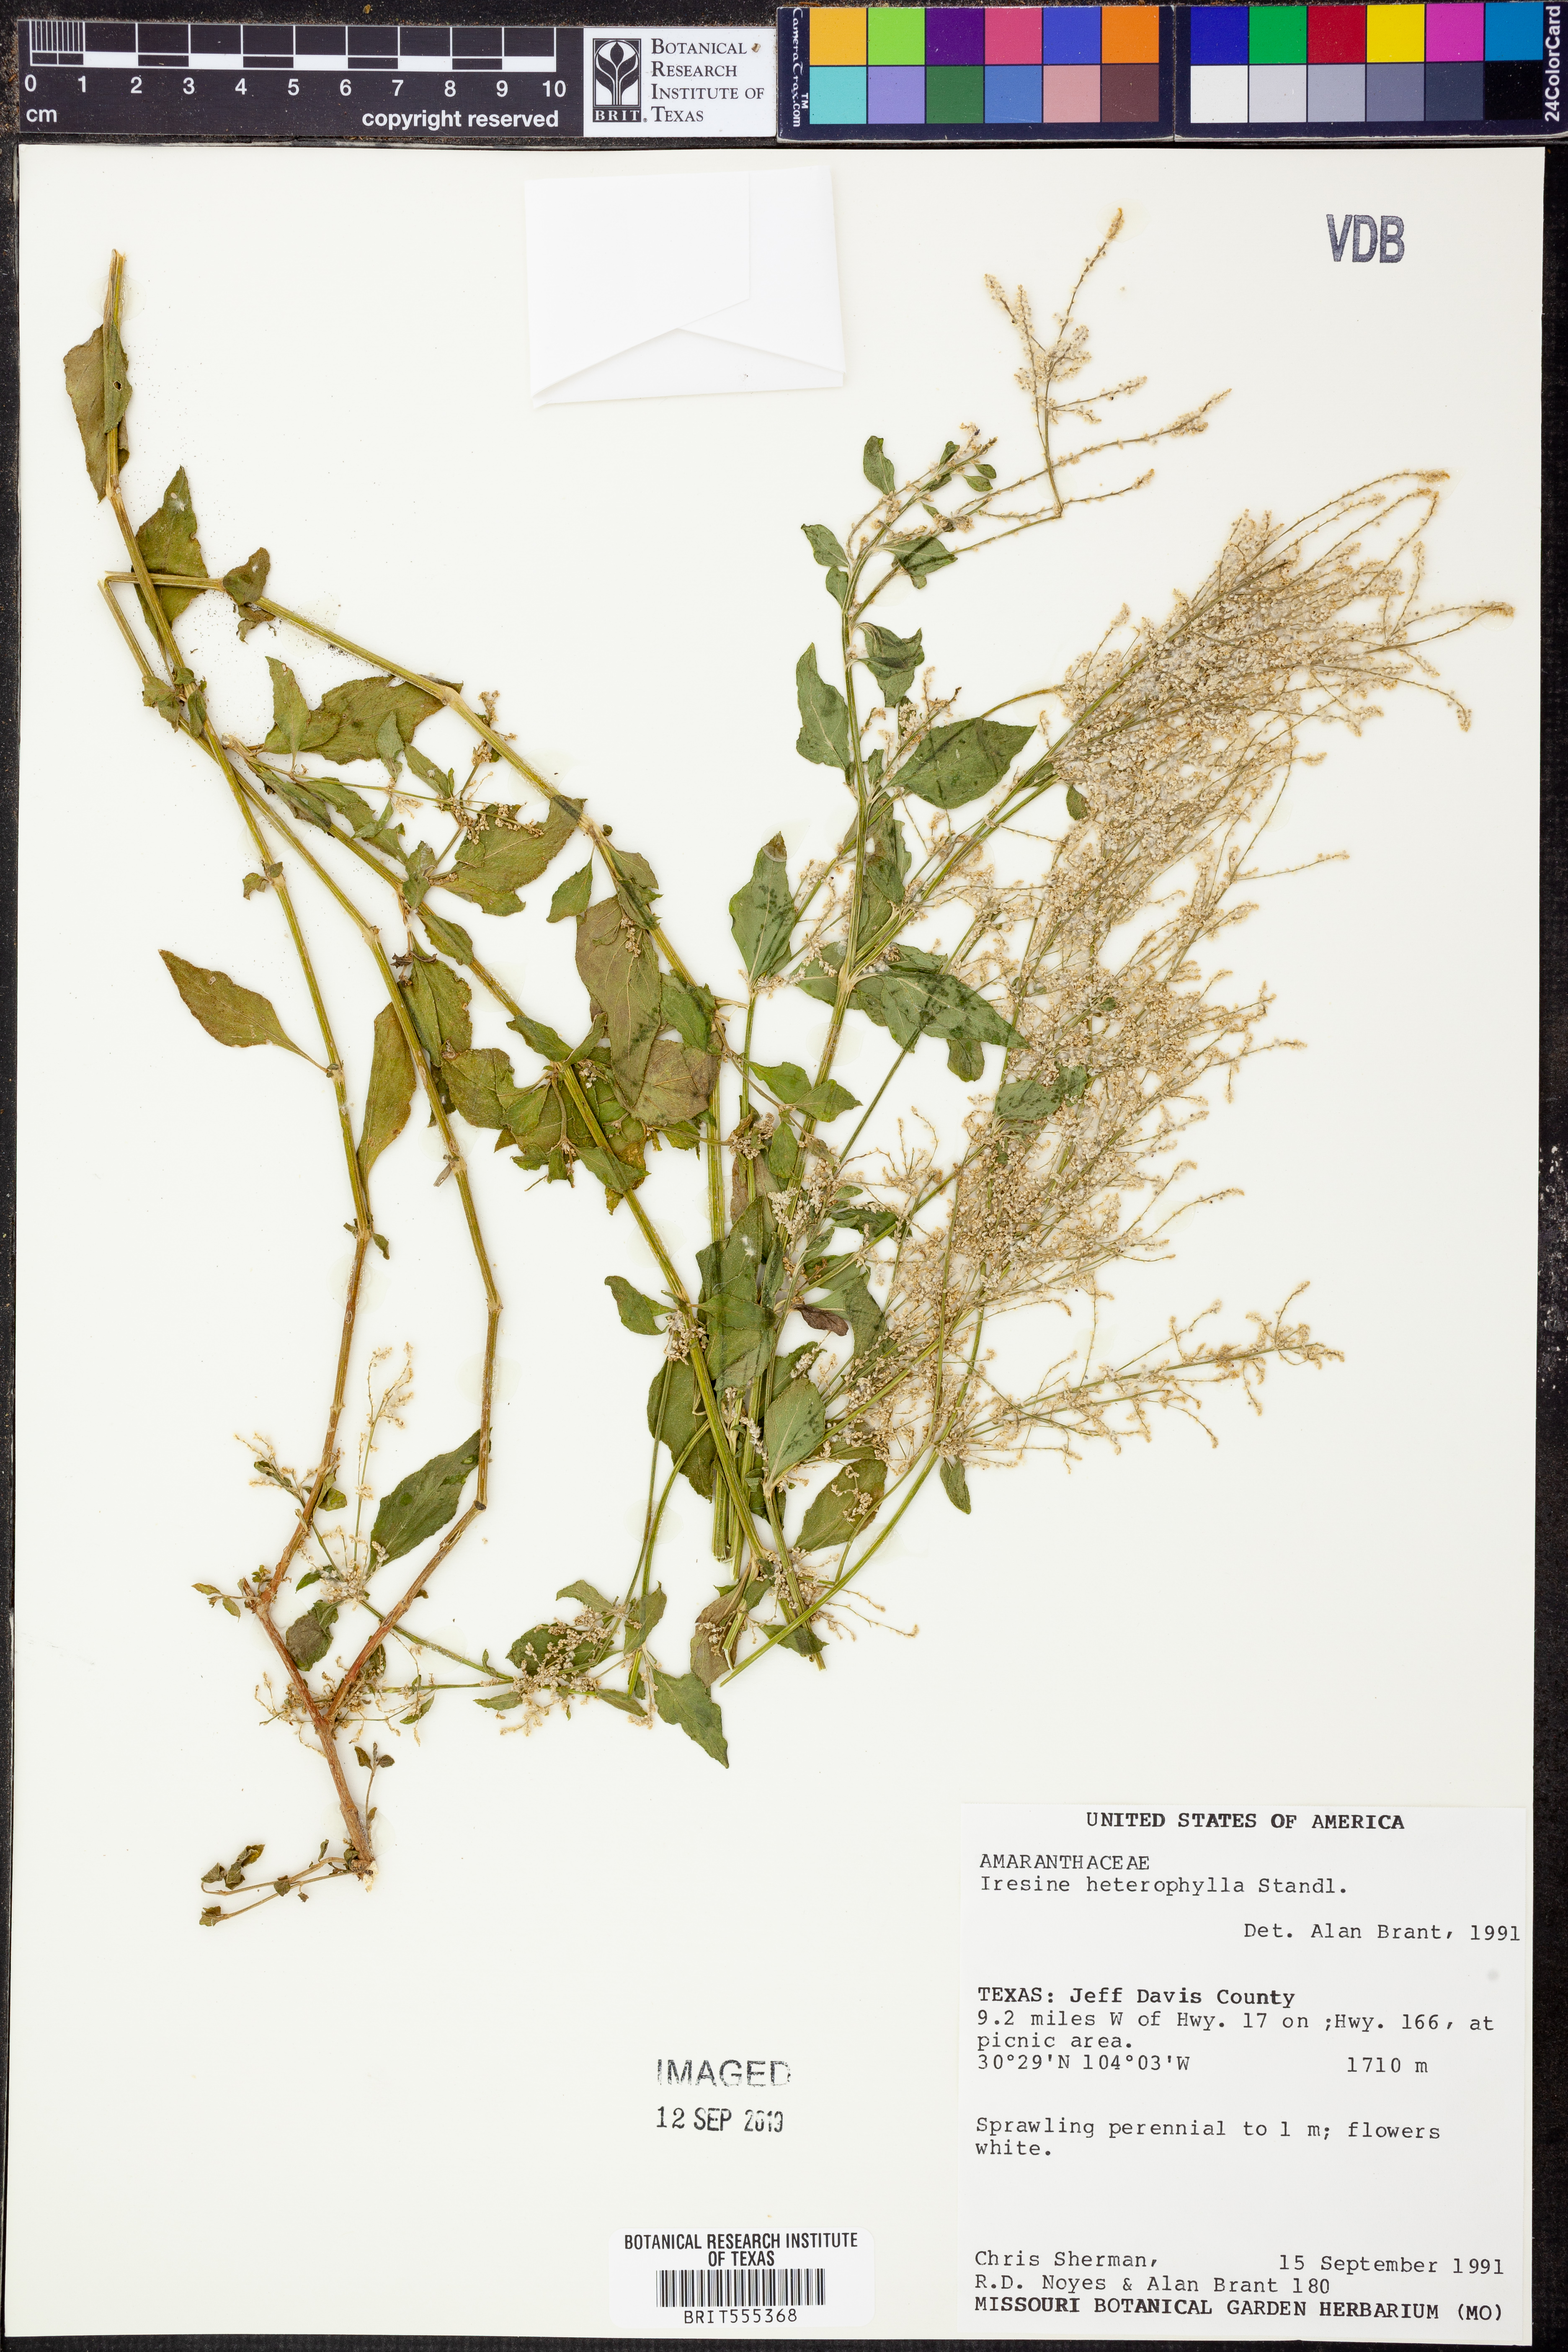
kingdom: Plantae
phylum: Tracheophyta
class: Magnoliopsida
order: Caryophyllales
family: Amaranthaceae
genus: Iresine
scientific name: Iresine heterophylla
